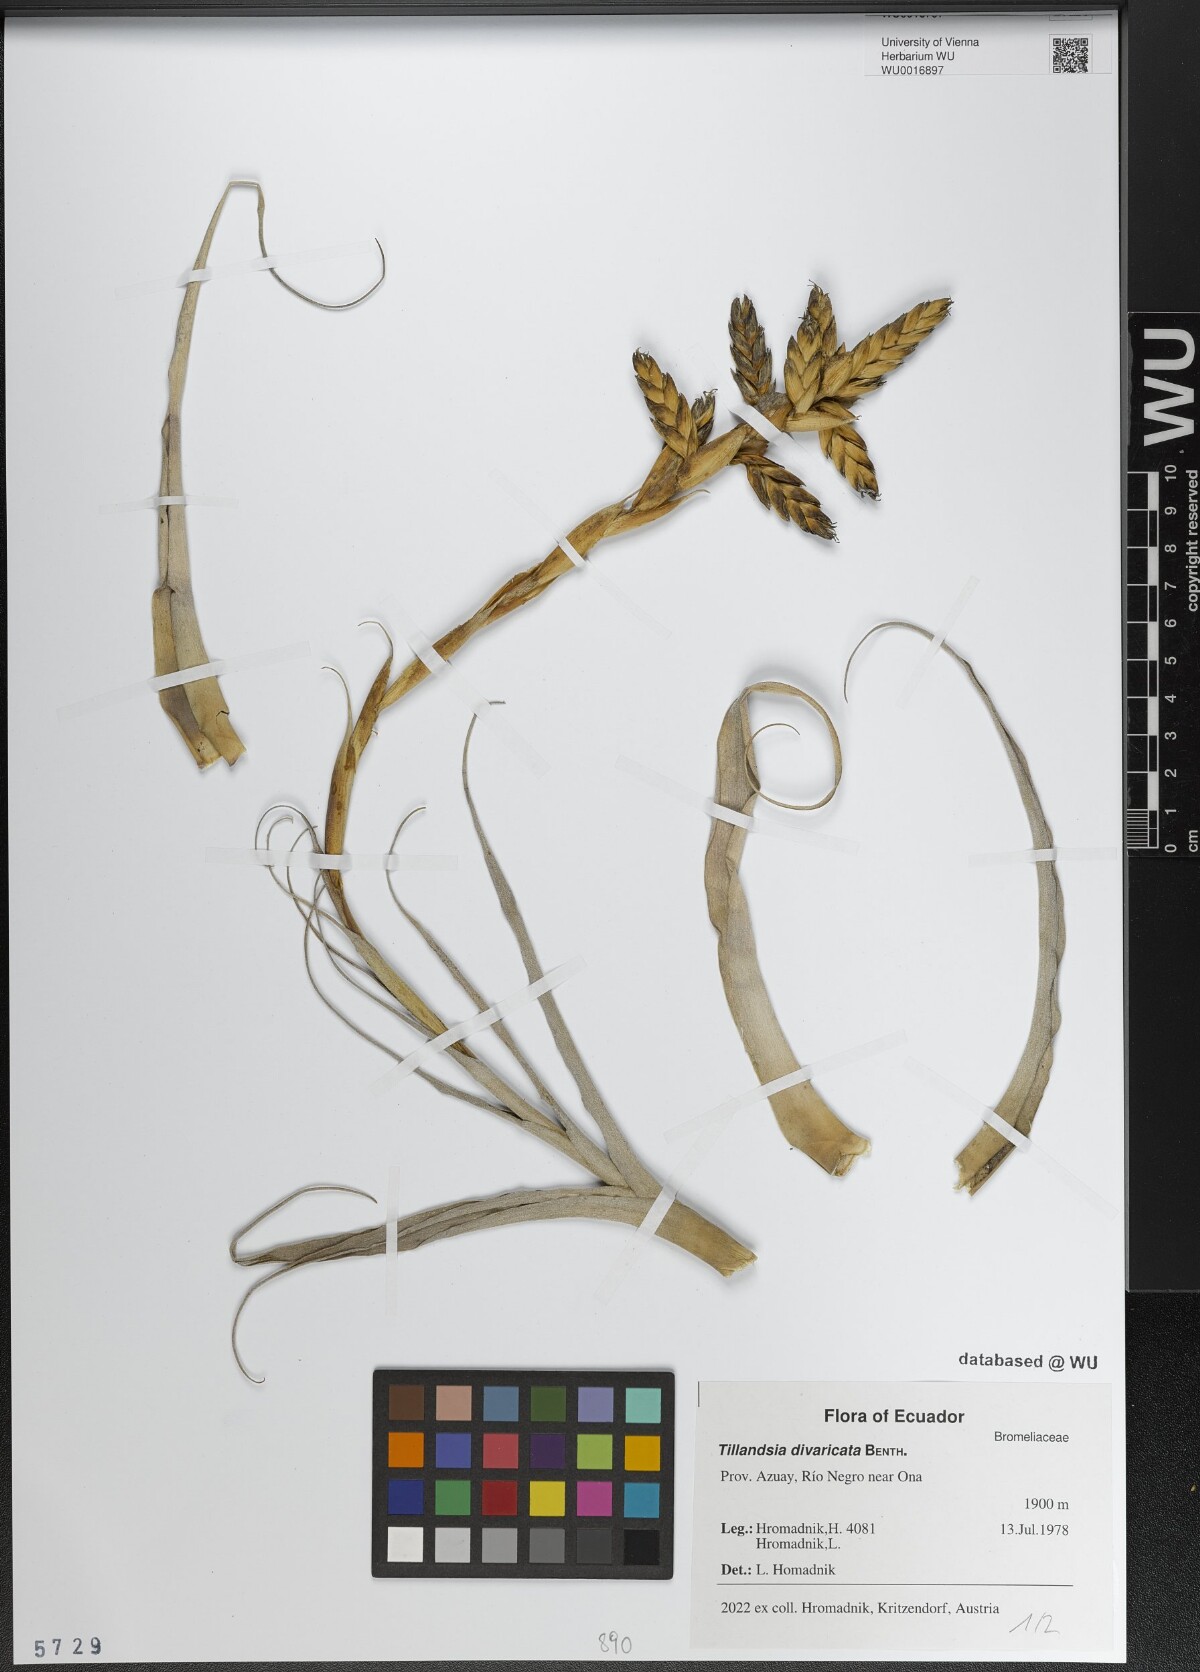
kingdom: Plantae
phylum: Tracheophyta
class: Liliopsida
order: Poales
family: Bromeliaceae
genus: Tillandsia
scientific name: Tillandsia latifolia
